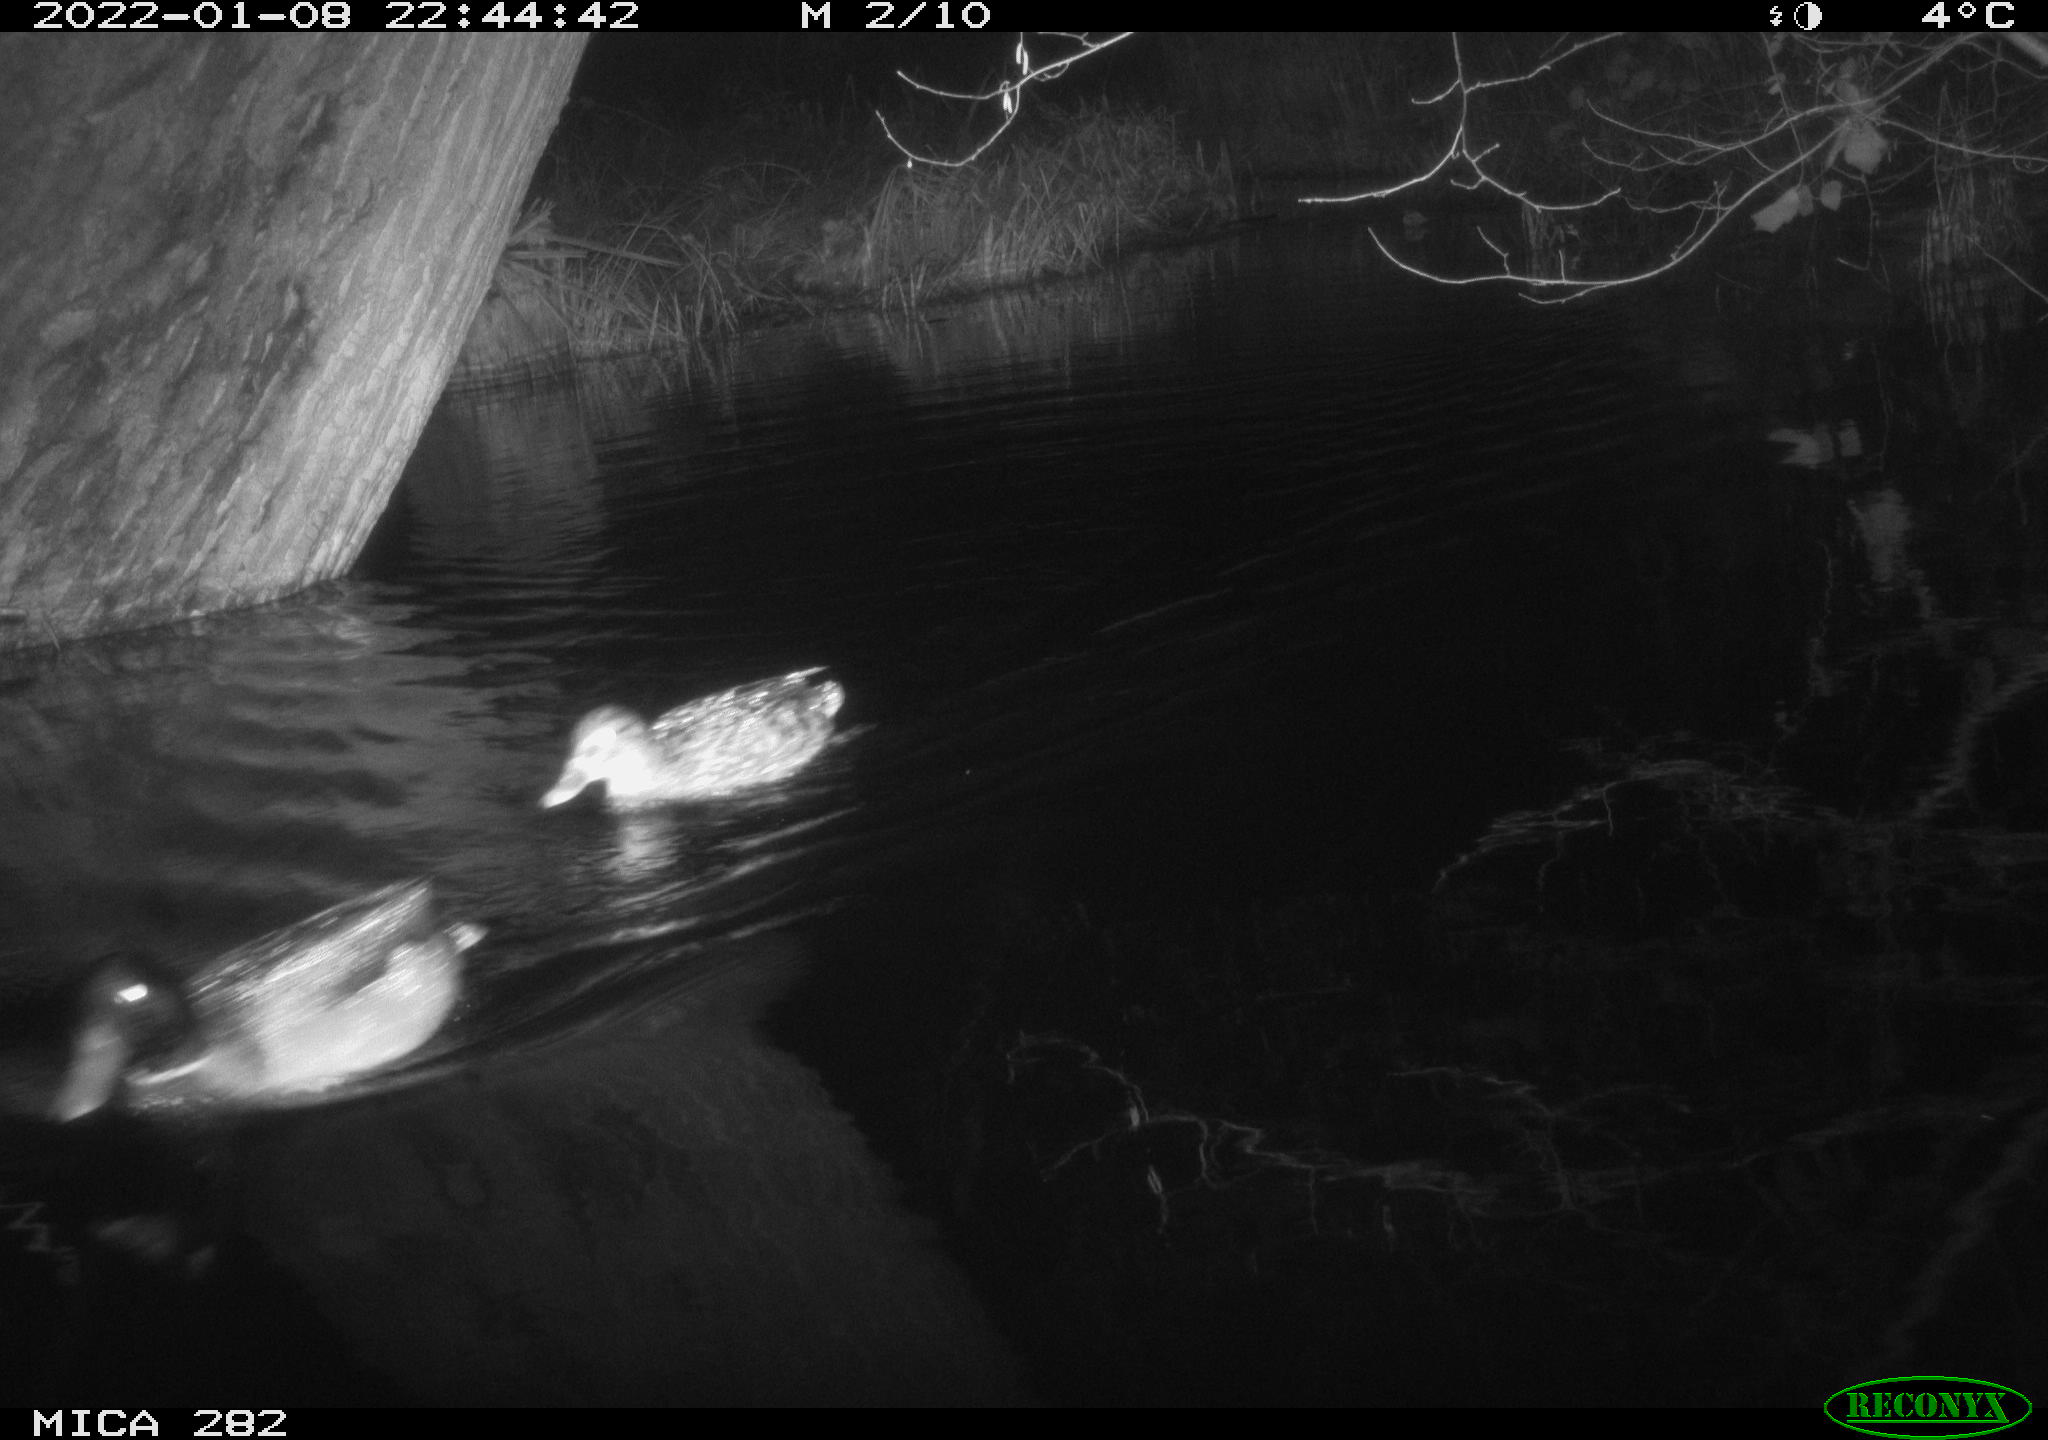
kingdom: Animalia
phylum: Chordata
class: Aves
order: Anseriformes
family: Anatidae
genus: Anas
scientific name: Anas platyrhynchos
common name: Mallard
